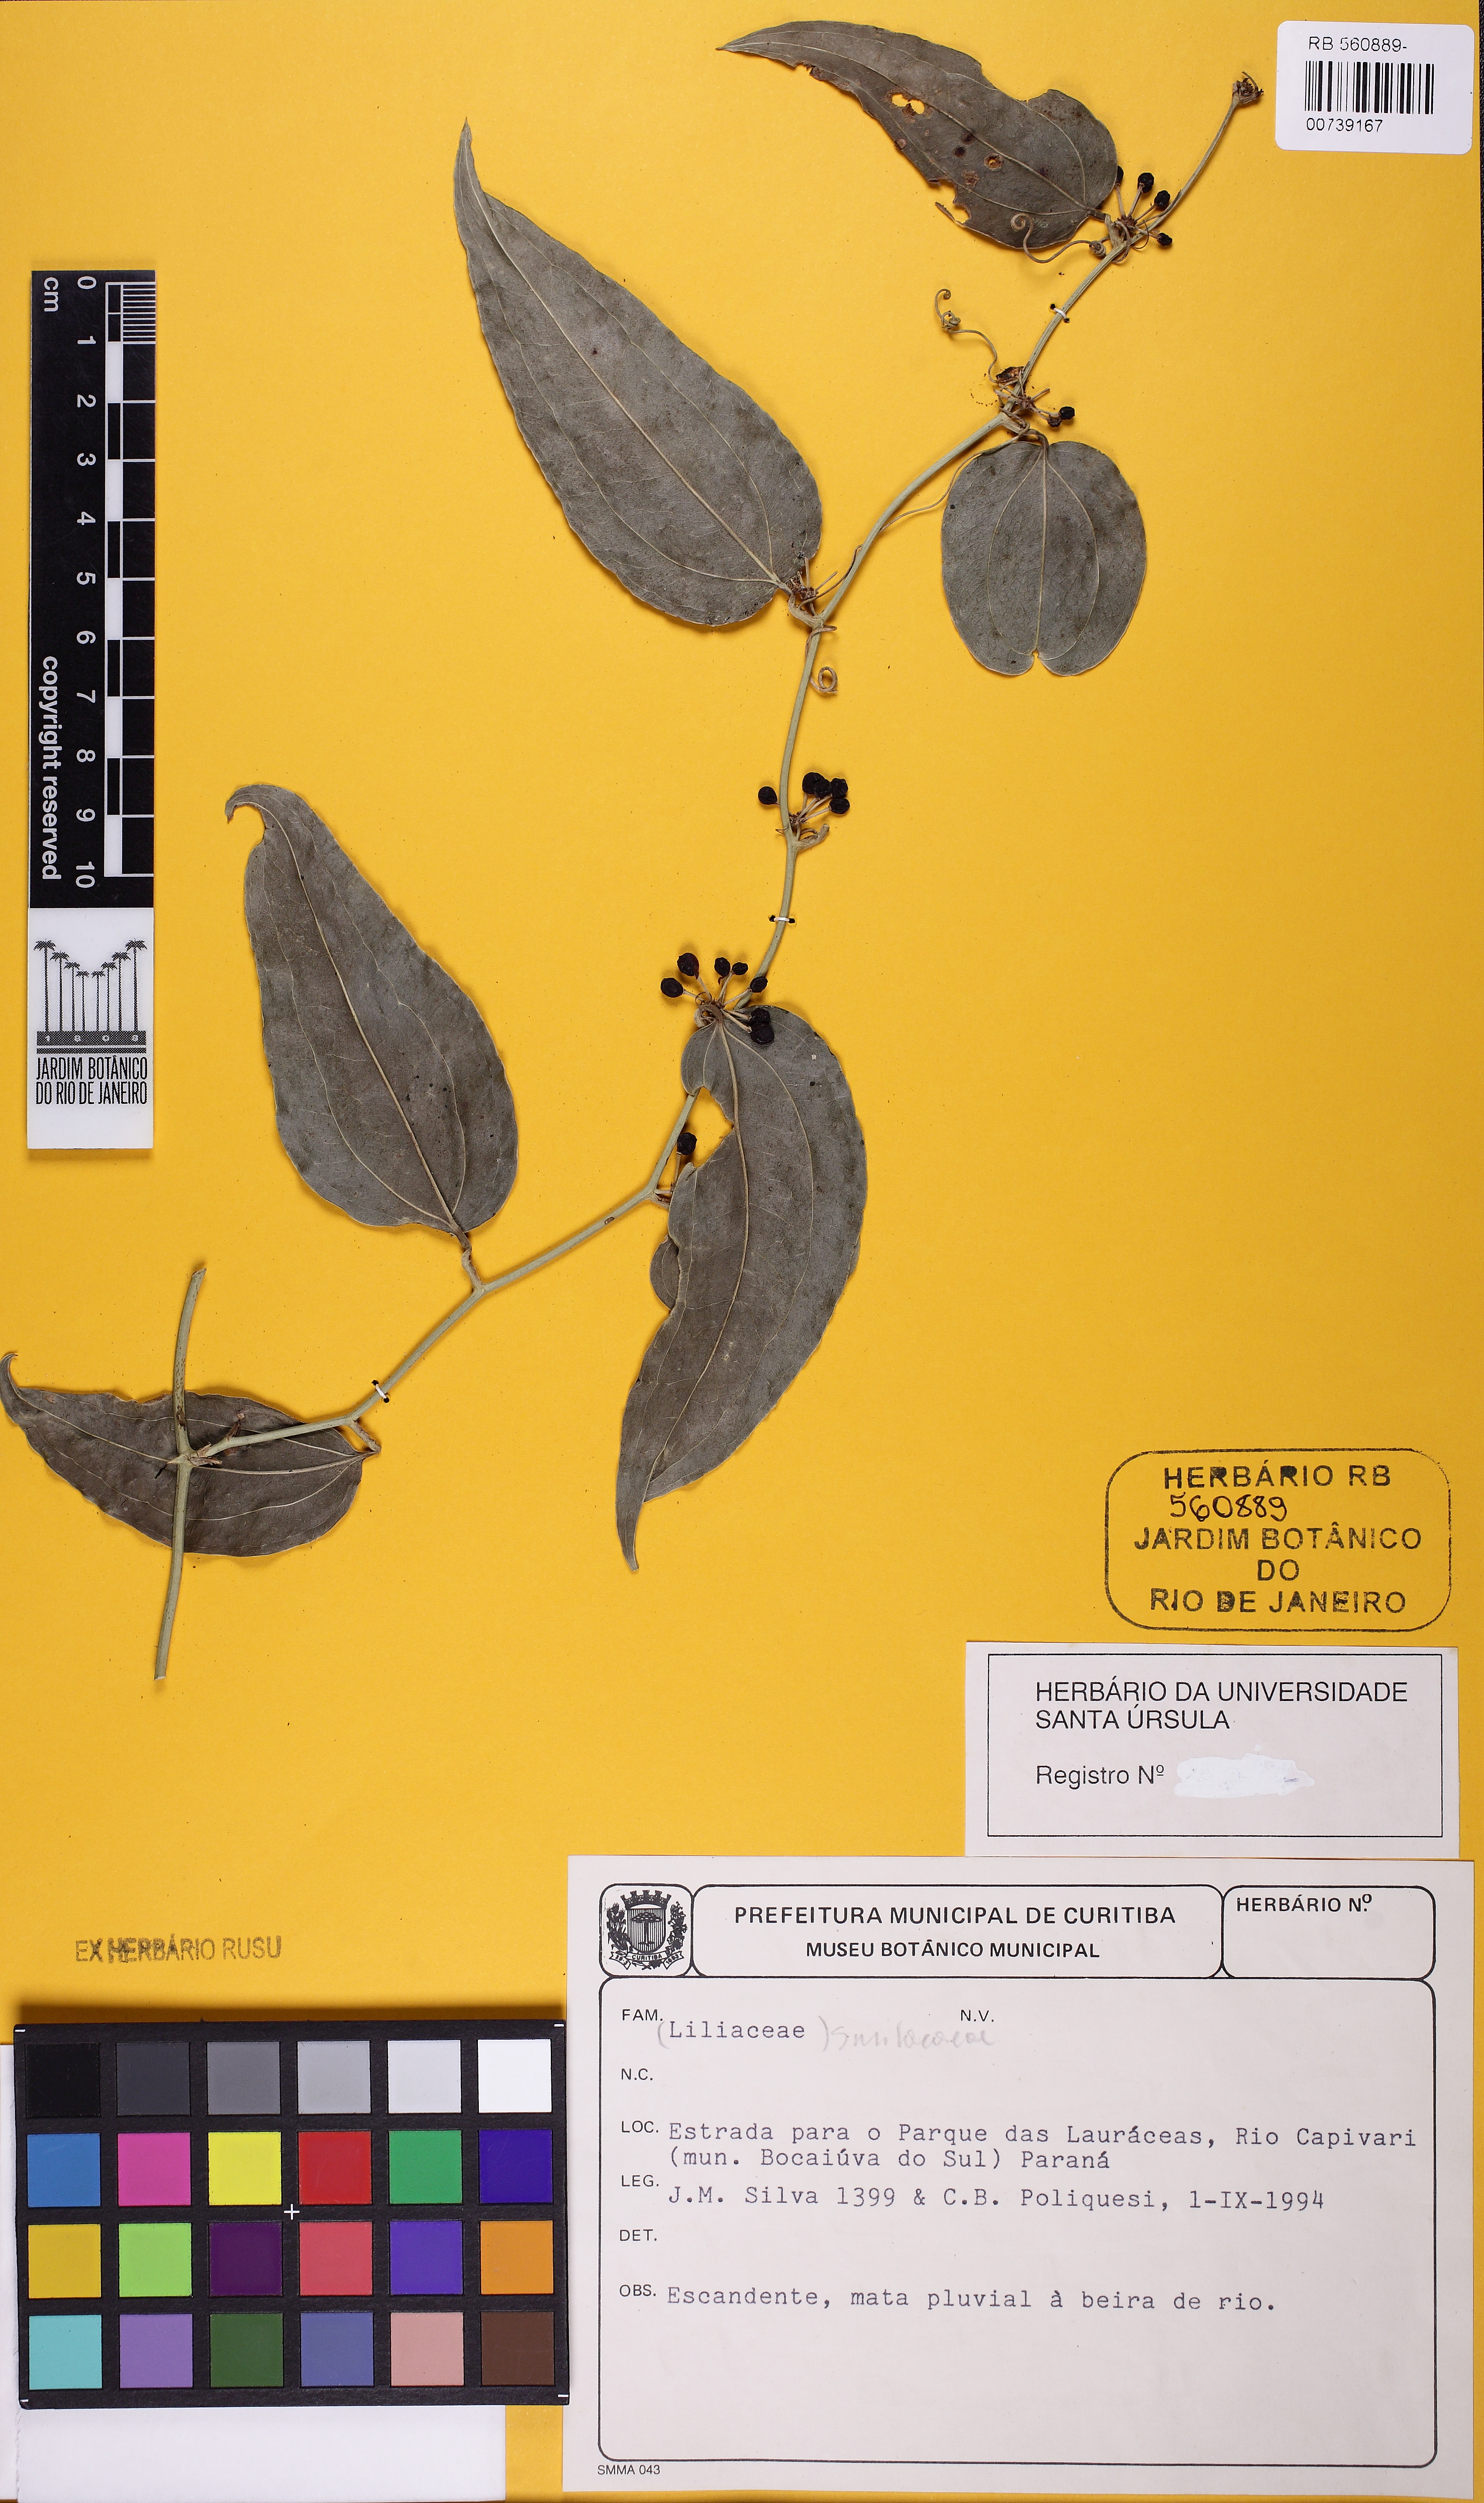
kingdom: Plantae
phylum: Tracheophyta
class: Liliopsida
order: Liliales
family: Smilacaceae
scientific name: Smilacaceae
